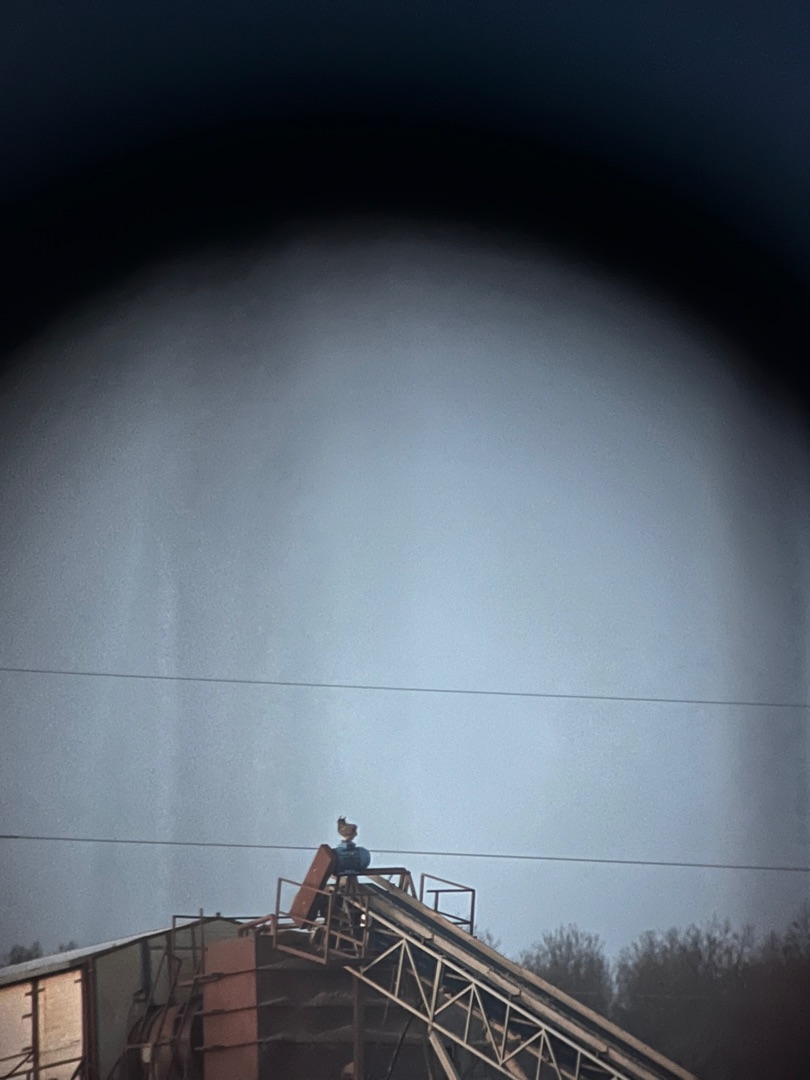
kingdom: Animalia
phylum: Chordata
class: Aves
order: Strigiformes
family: Strigidae
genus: Bubo
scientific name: Bubo bubo
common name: Stor hornugle
